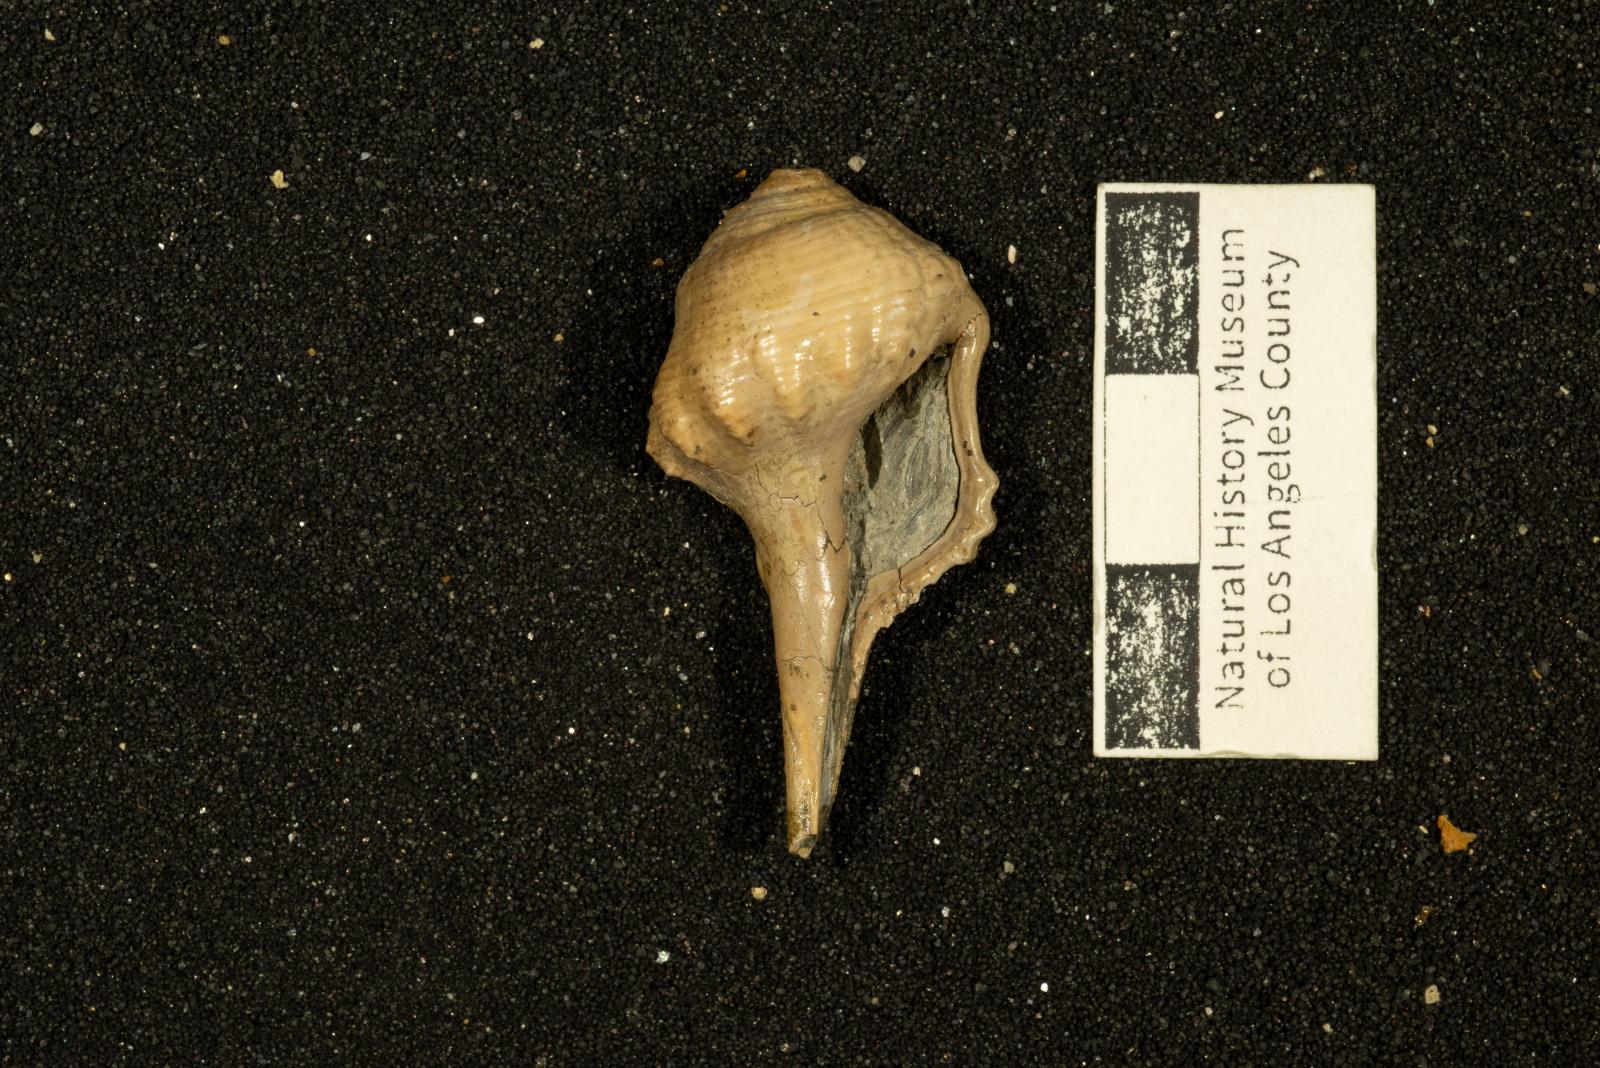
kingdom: Animalia
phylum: Mollusca
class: Gastropoda
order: Neogastropoda
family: Perissityidae
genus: Perissitys
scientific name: Perissitys colocara
